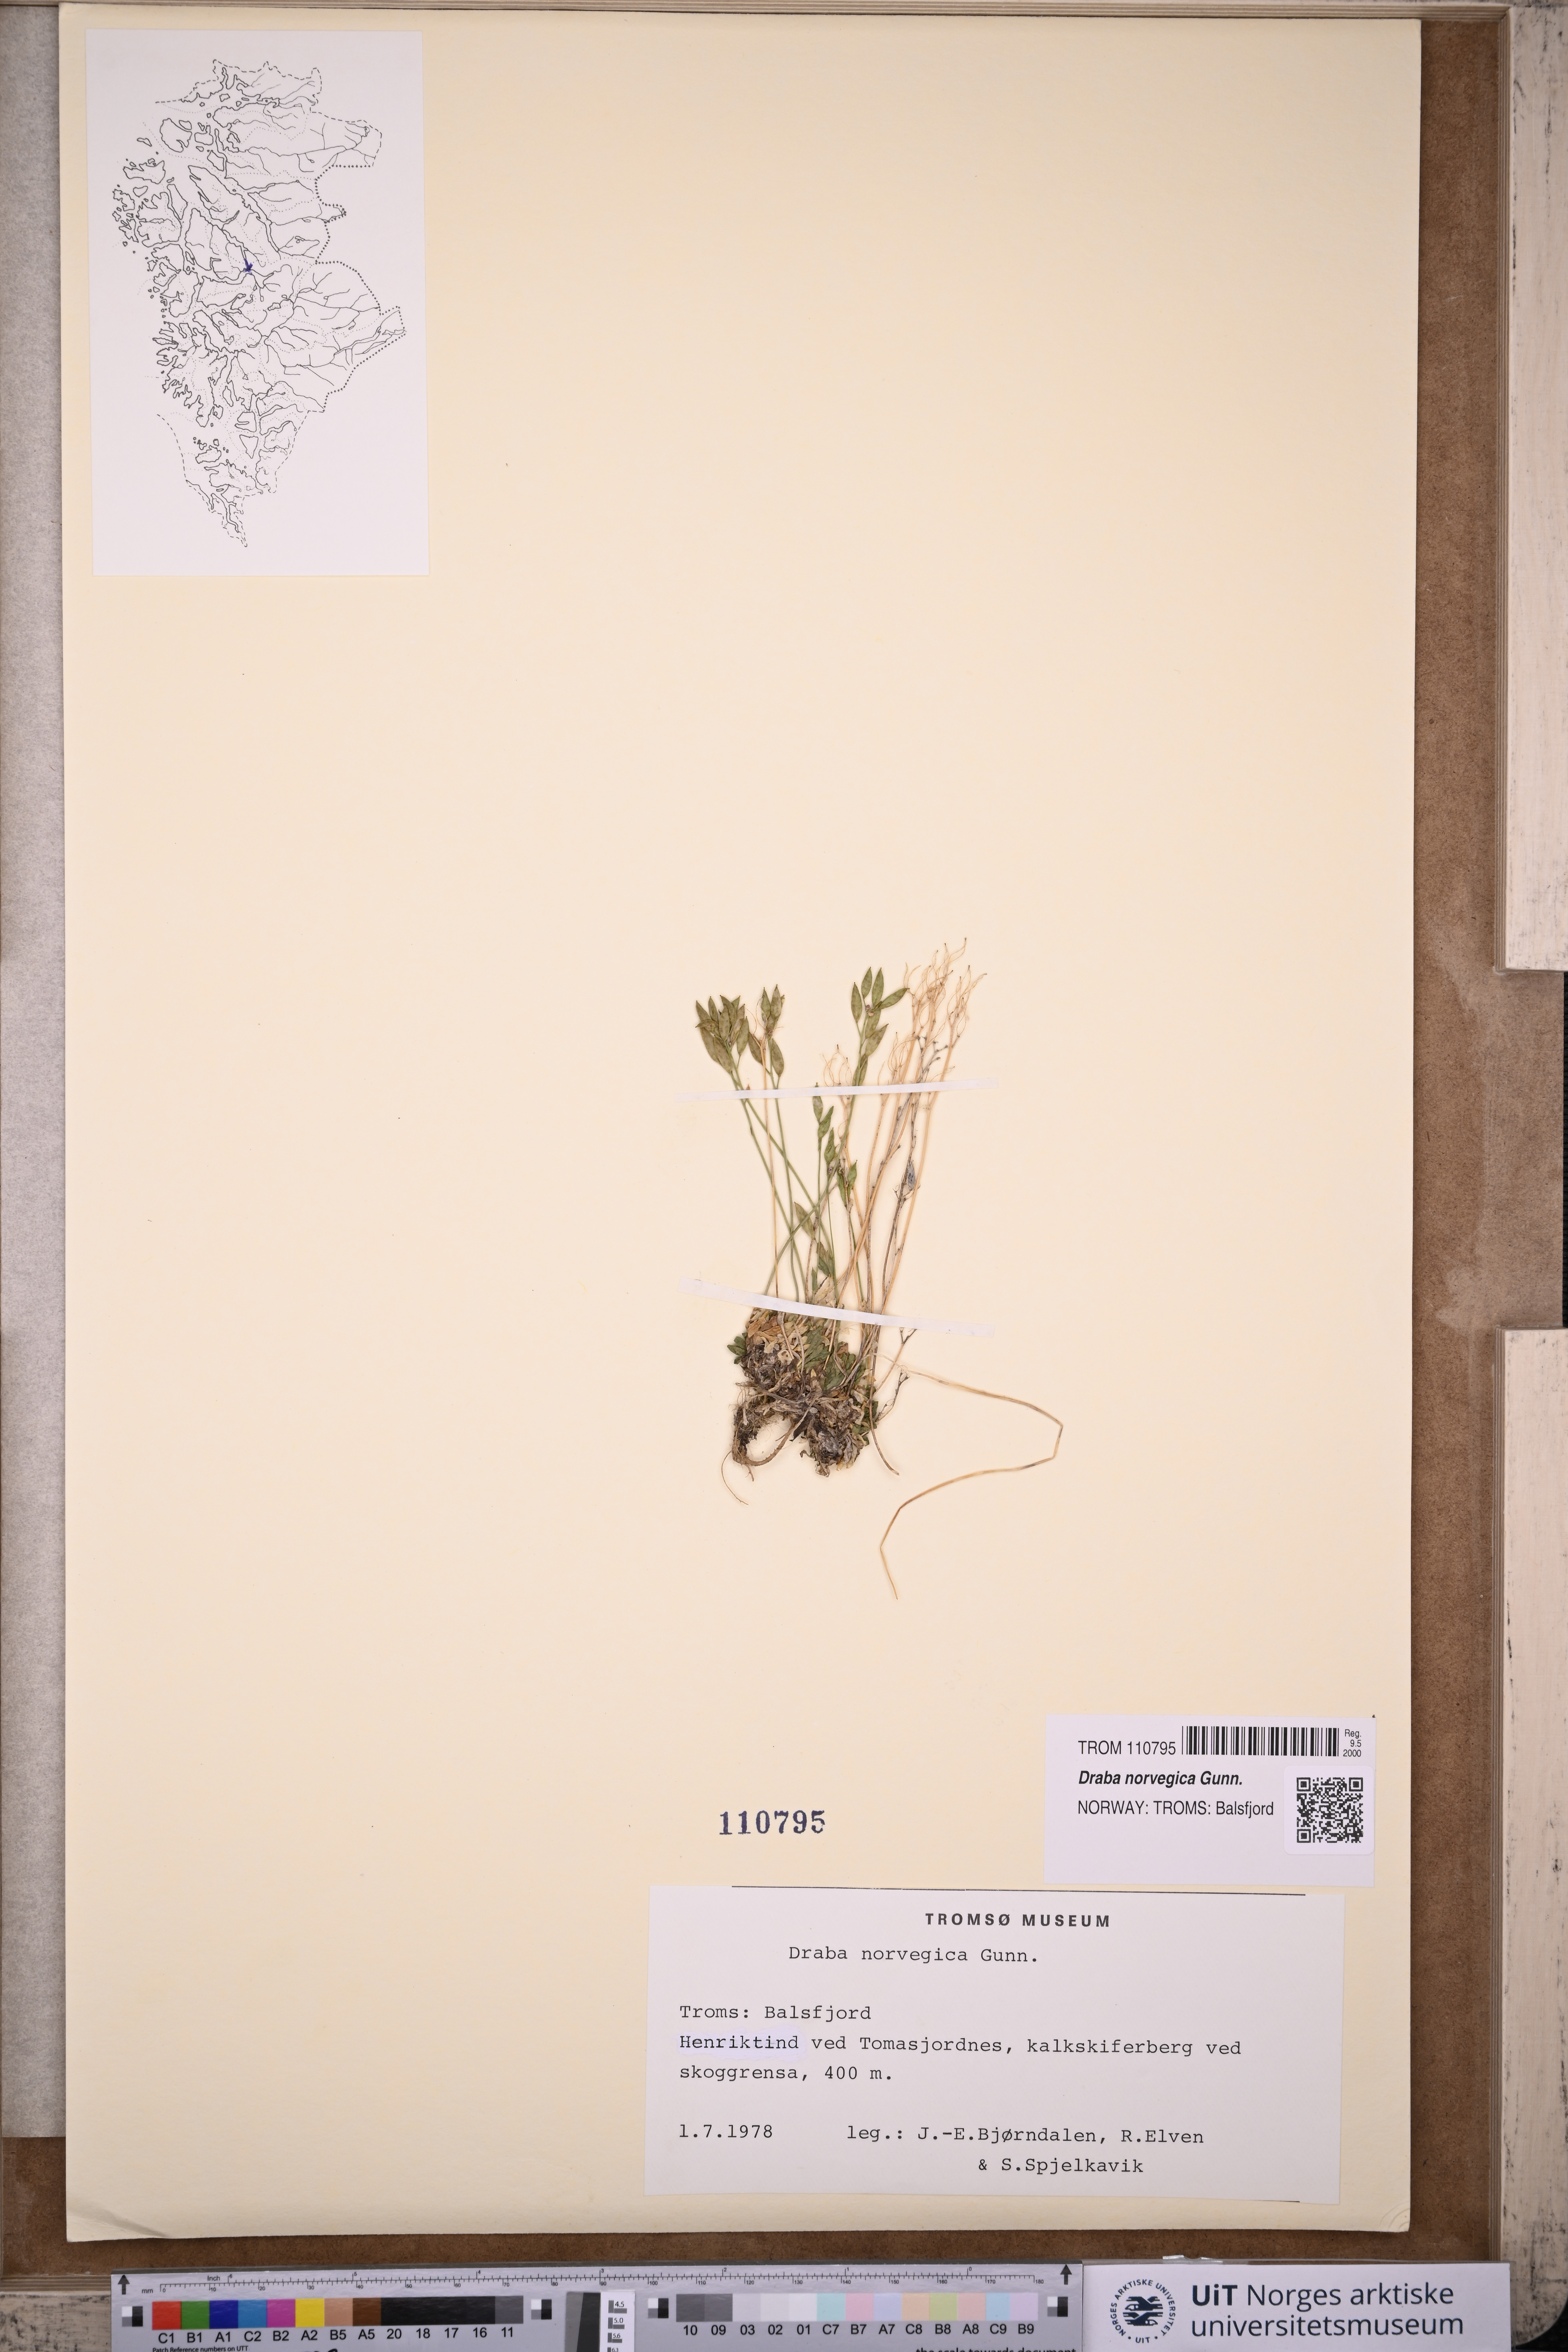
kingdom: Plantae
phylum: Tracheophyta
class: Magnoliopsida
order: Brassicales
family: Brassicaceae
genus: Draba
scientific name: Draba norvegica
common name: Rock whitlowgrass
